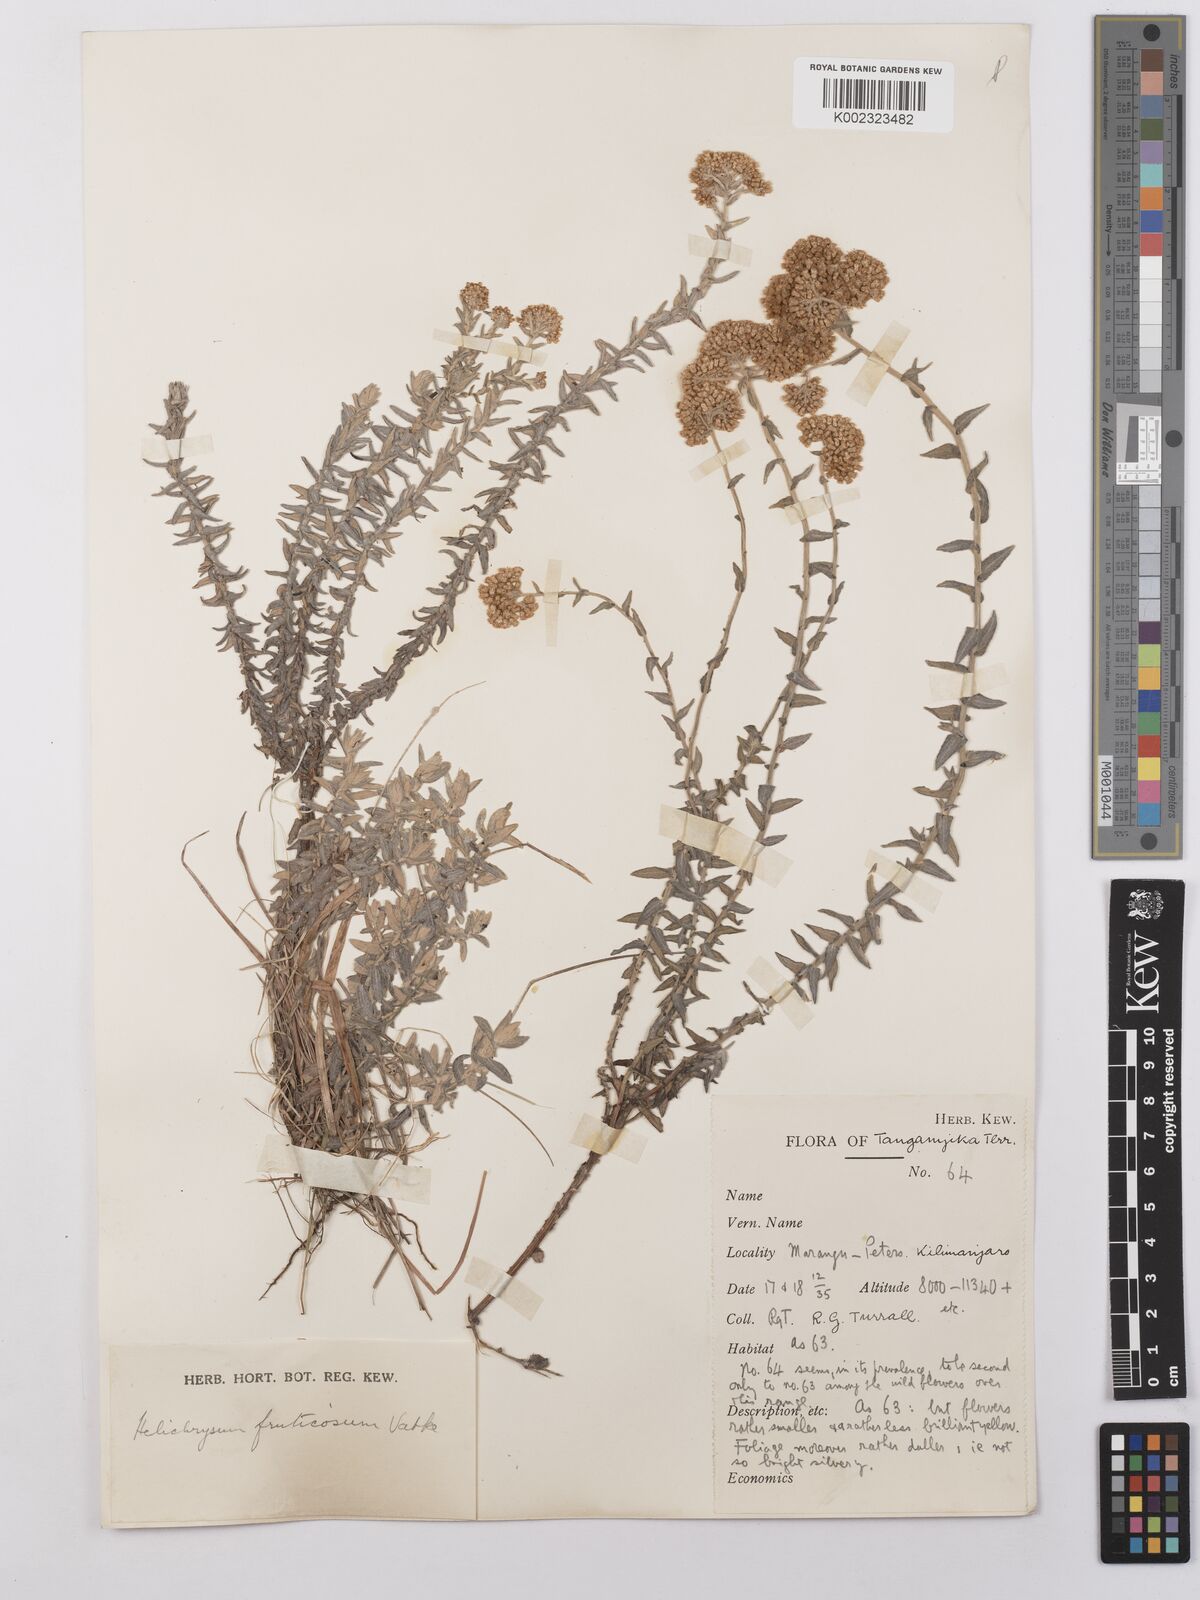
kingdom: Plantae
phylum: Tracheophyta
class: Magnoliopsida
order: Asterales
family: Asteraceae
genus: Helichrysum
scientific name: Helichrysum forskahlii
